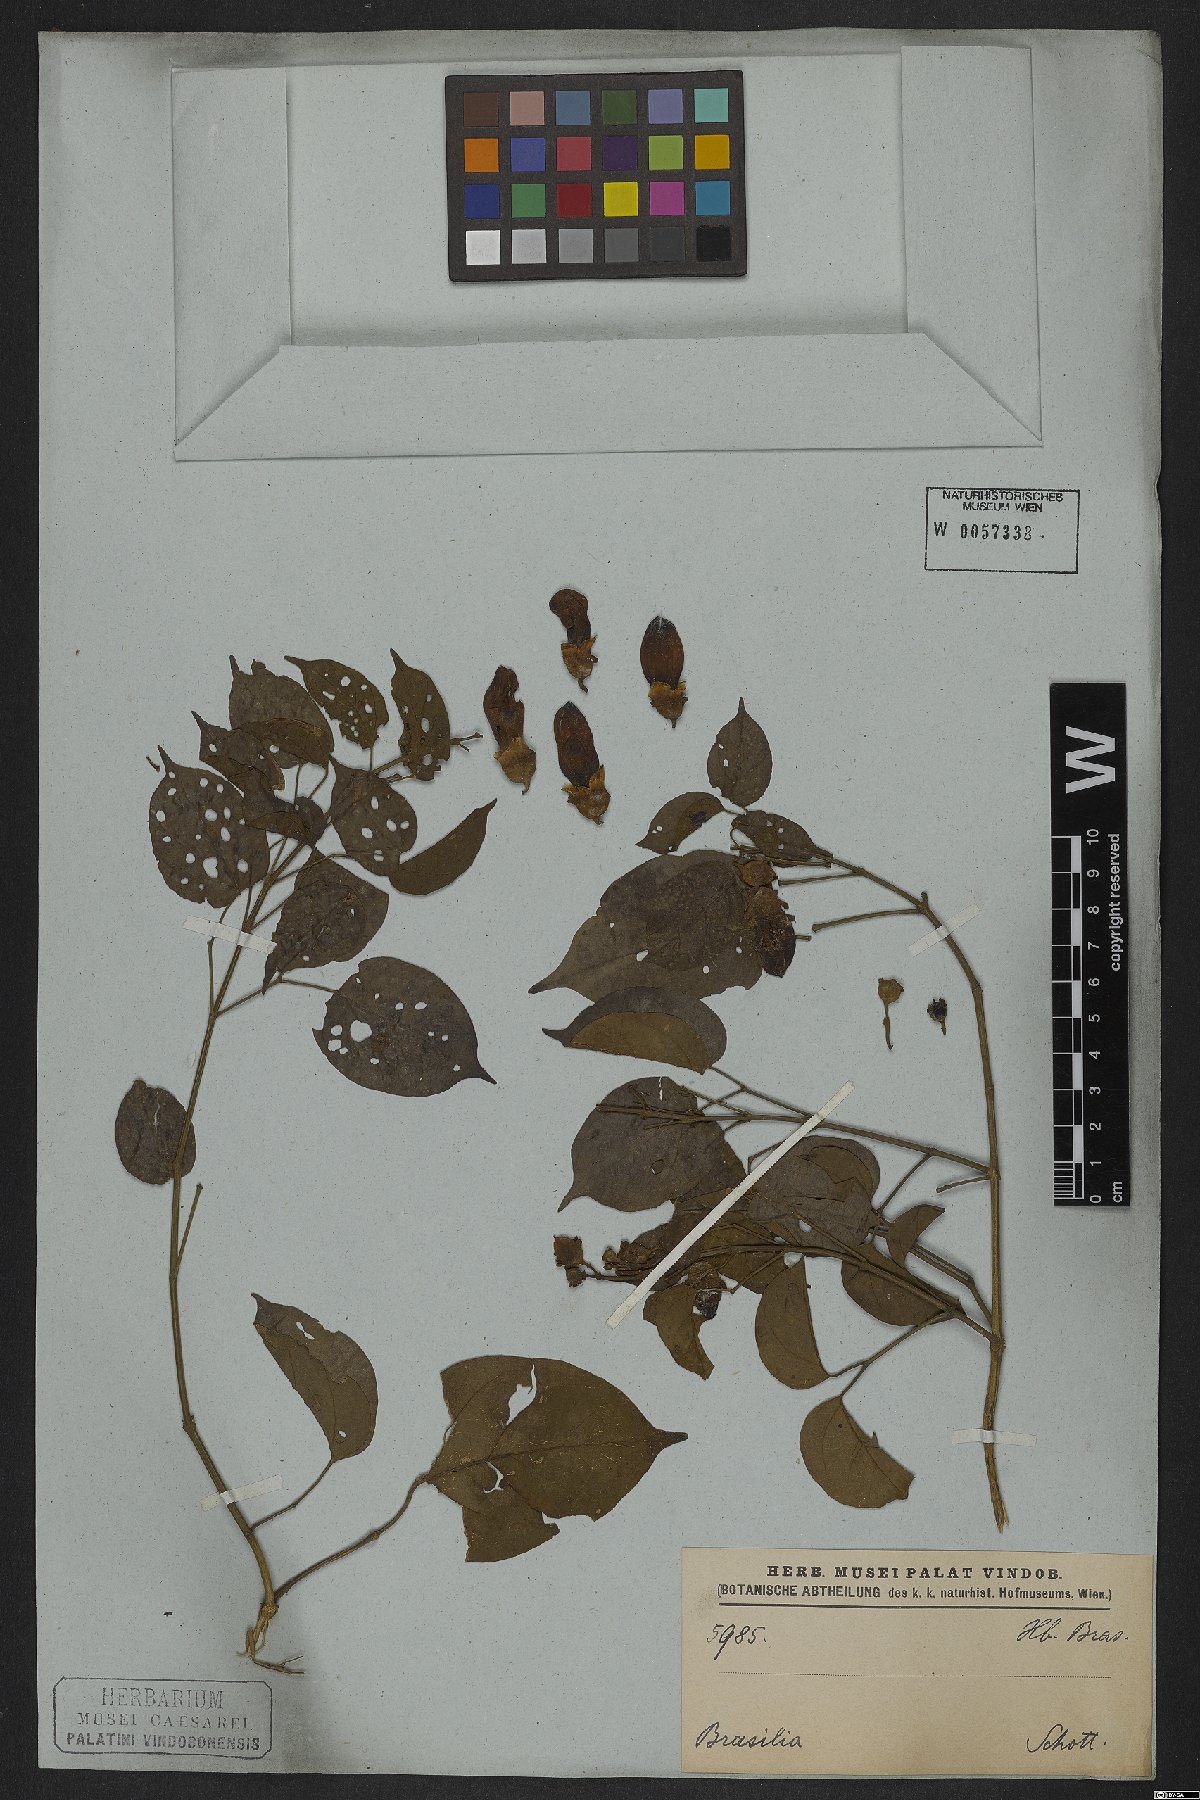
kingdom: Plantae
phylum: Tracheophyta
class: Magnoliopsida
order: Lamiales
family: Bignoniaceae
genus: Amphilophium
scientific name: Amphilophium paniculatum
